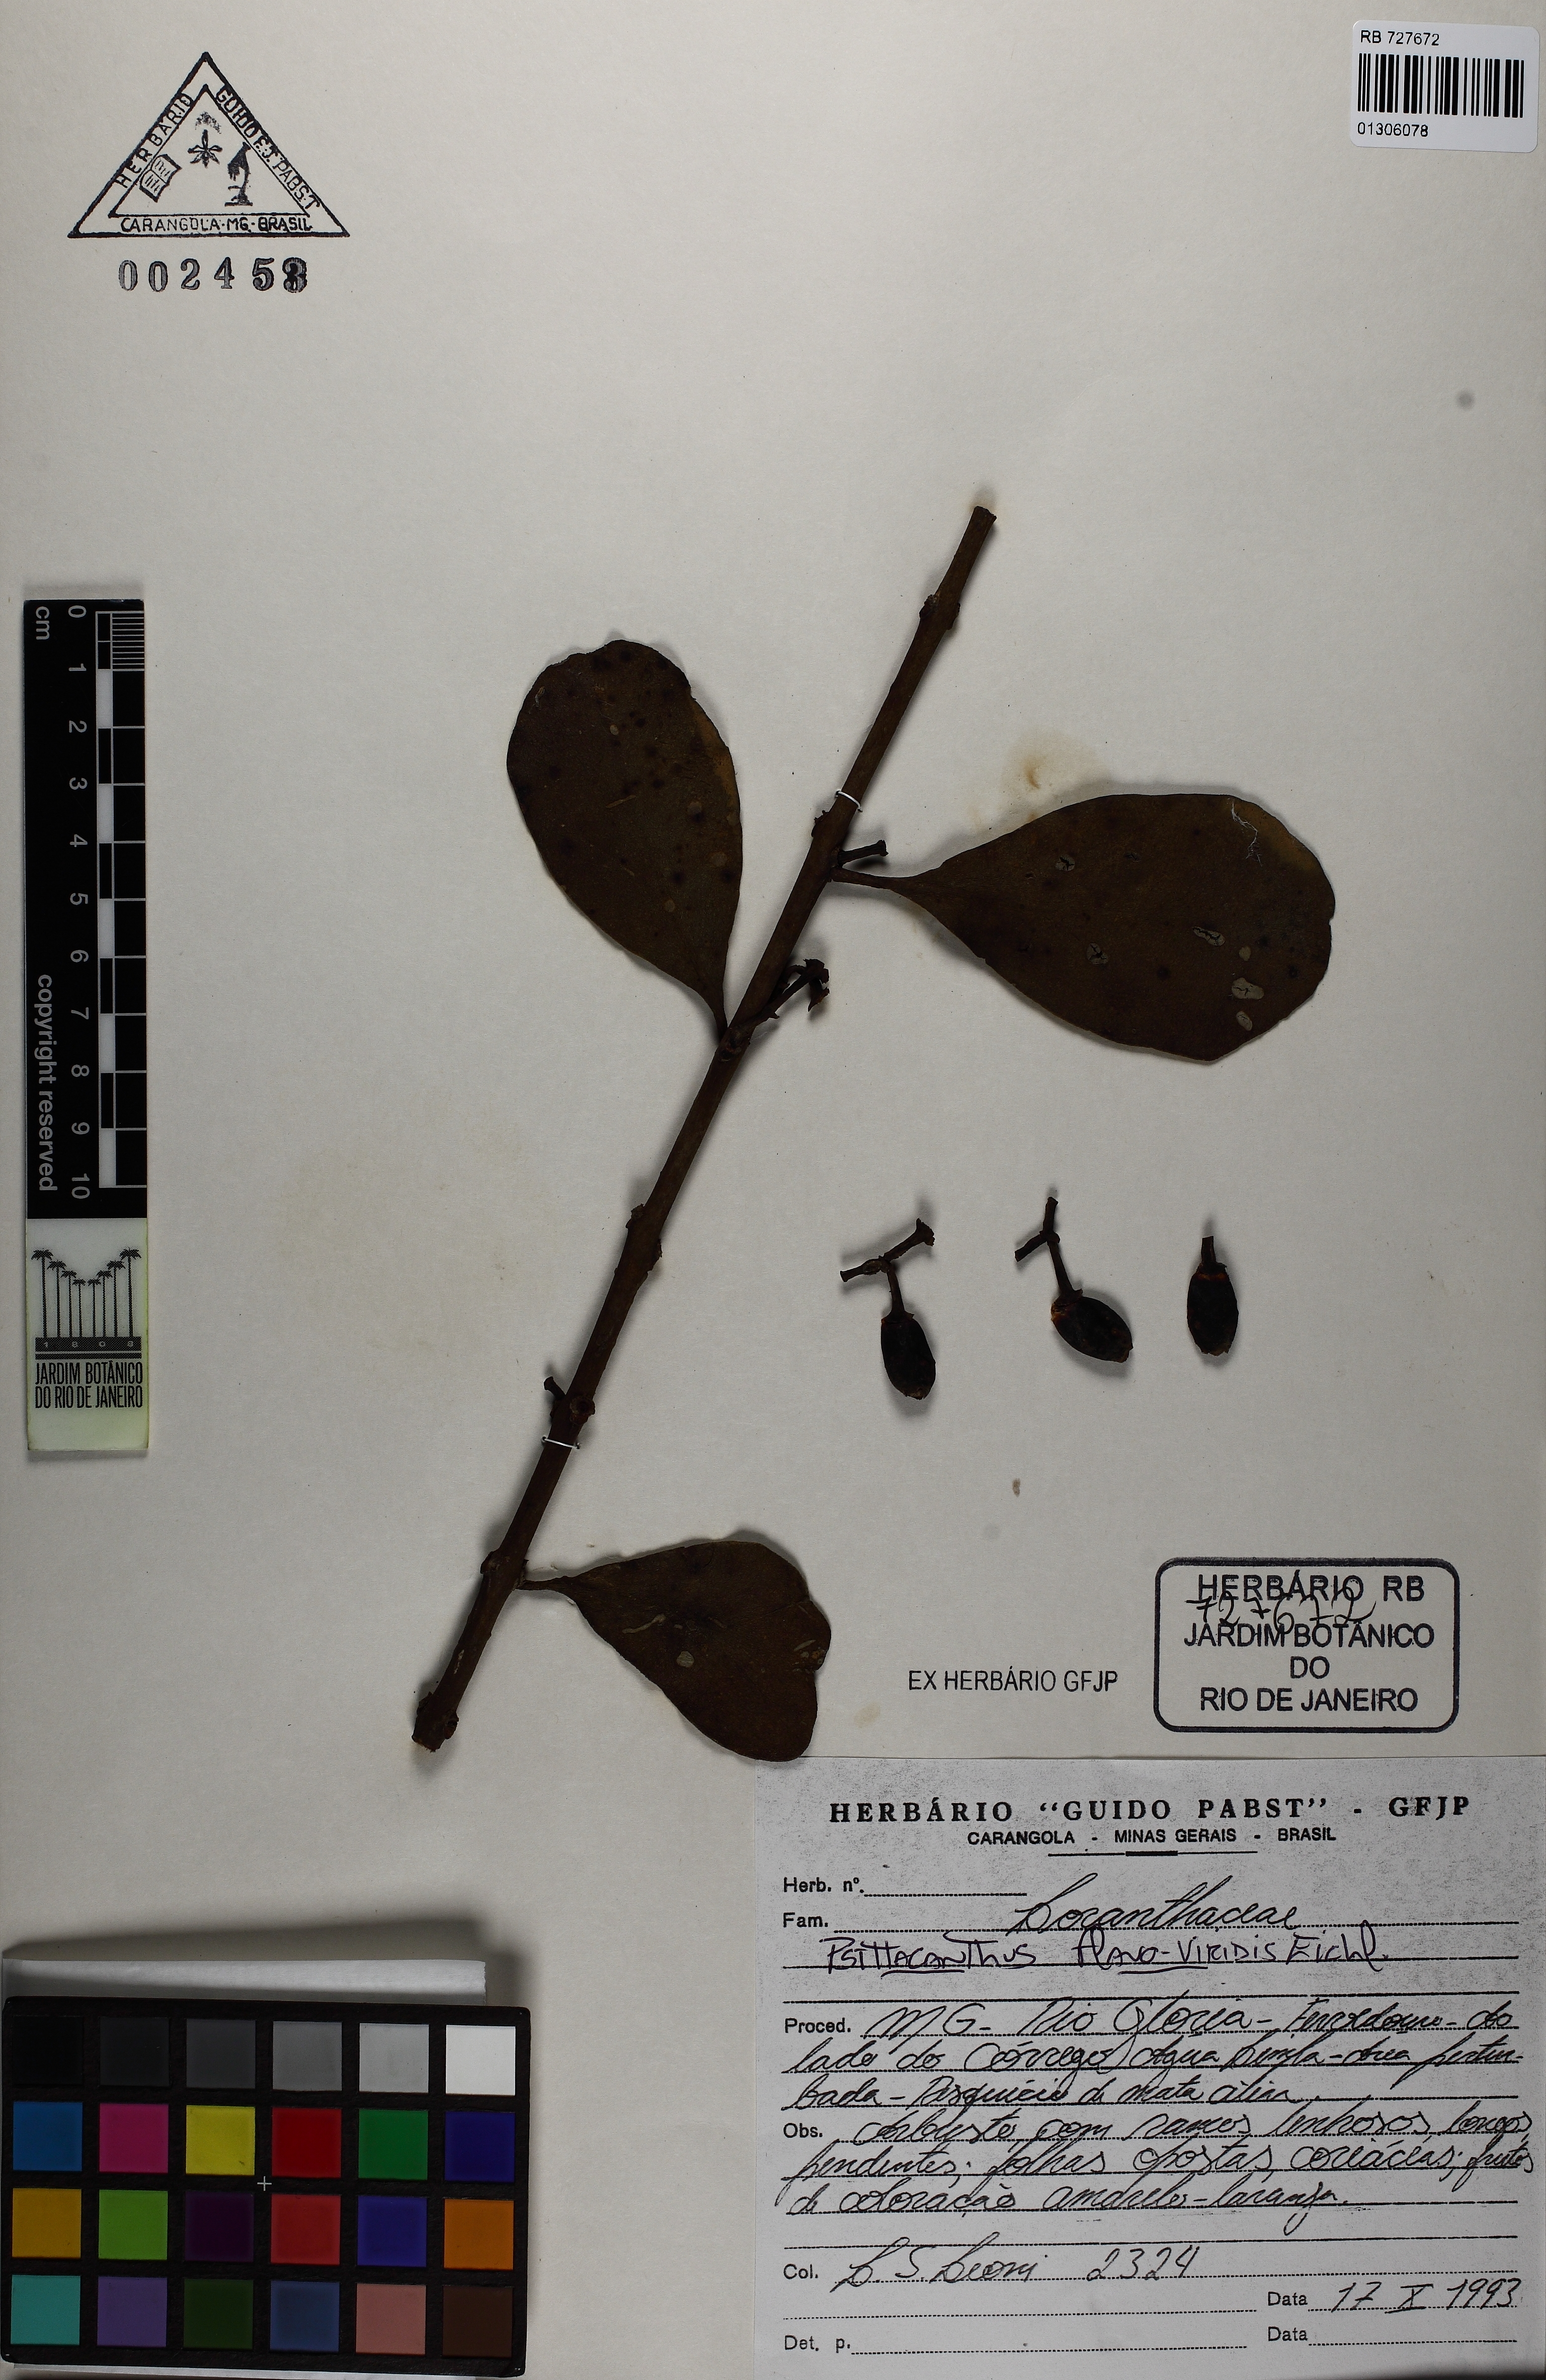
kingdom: Plantae
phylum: Tracheophyta
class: Magnoliopsida
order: Santalales
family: Loranthaceae
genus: Psittacanthus
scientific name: Psittacanthus brasiliensis
